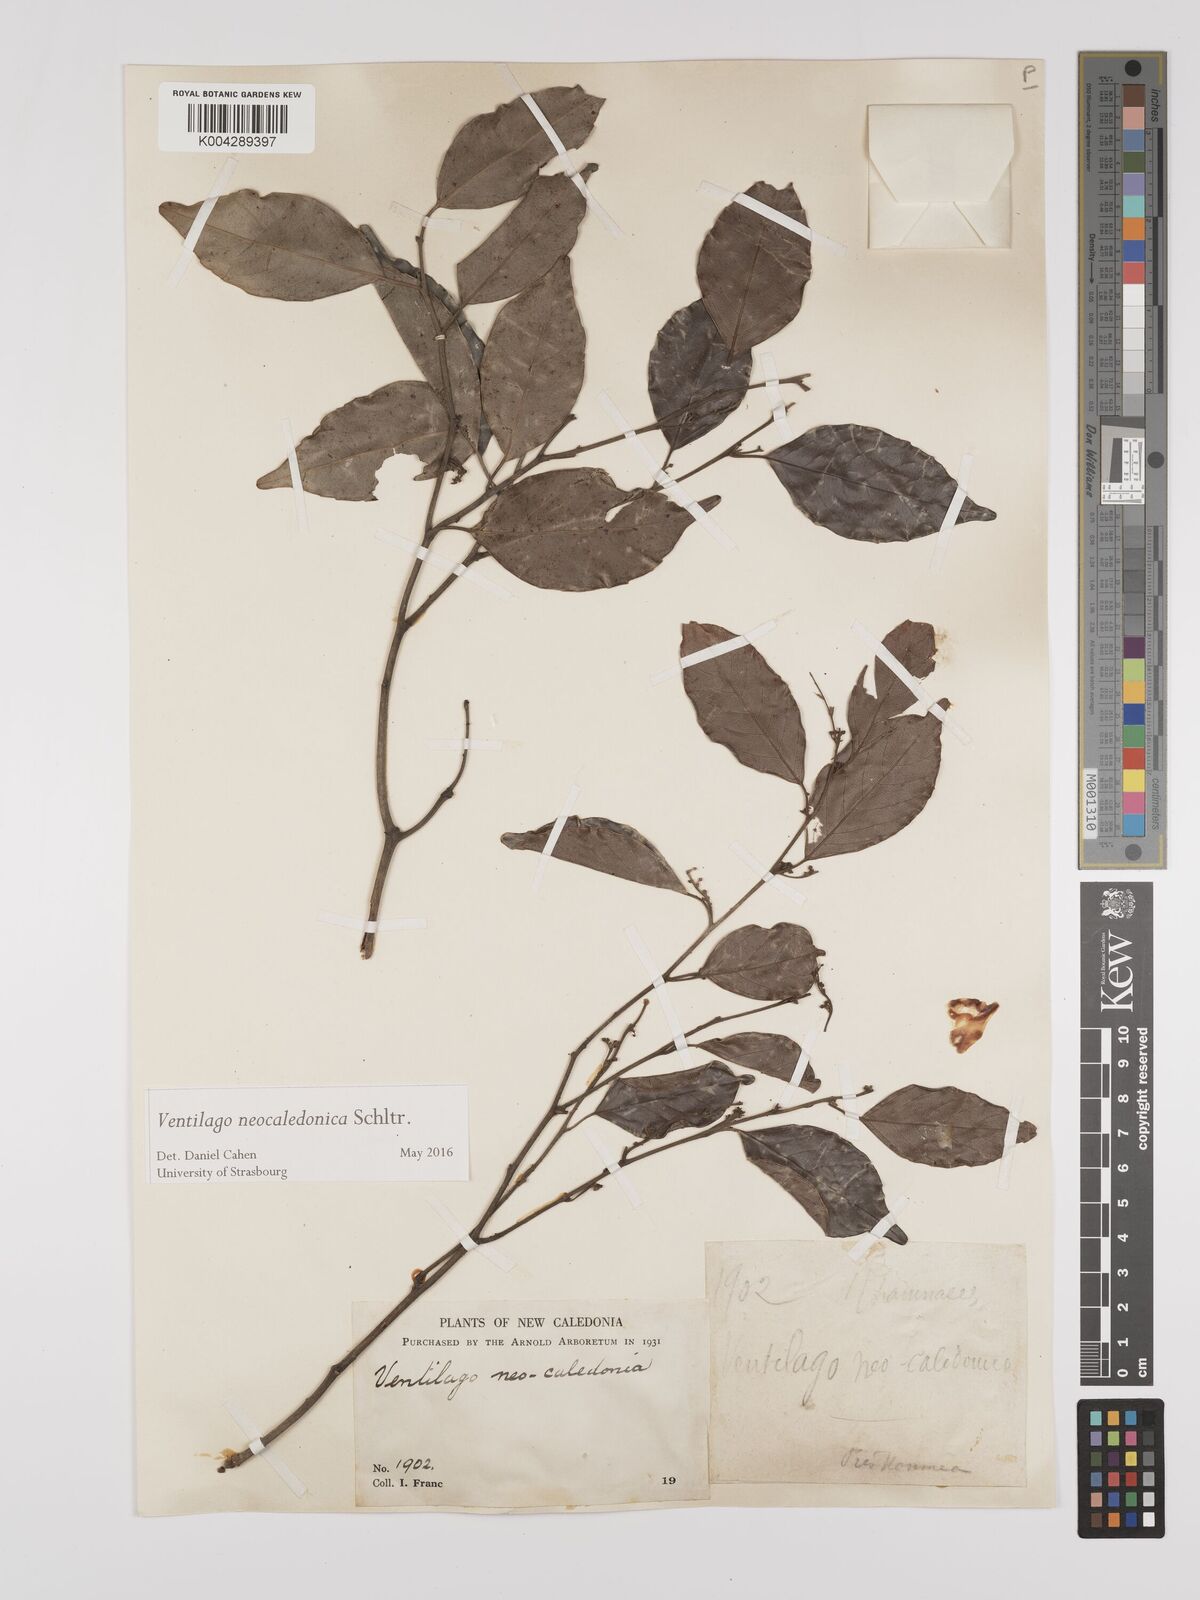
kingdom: Plantae
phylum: Tracheophyta
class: Magnoliopsida
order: Rosales
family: Rhamnaceae
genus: Ventilago
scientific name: Ventilago neocaledonica
